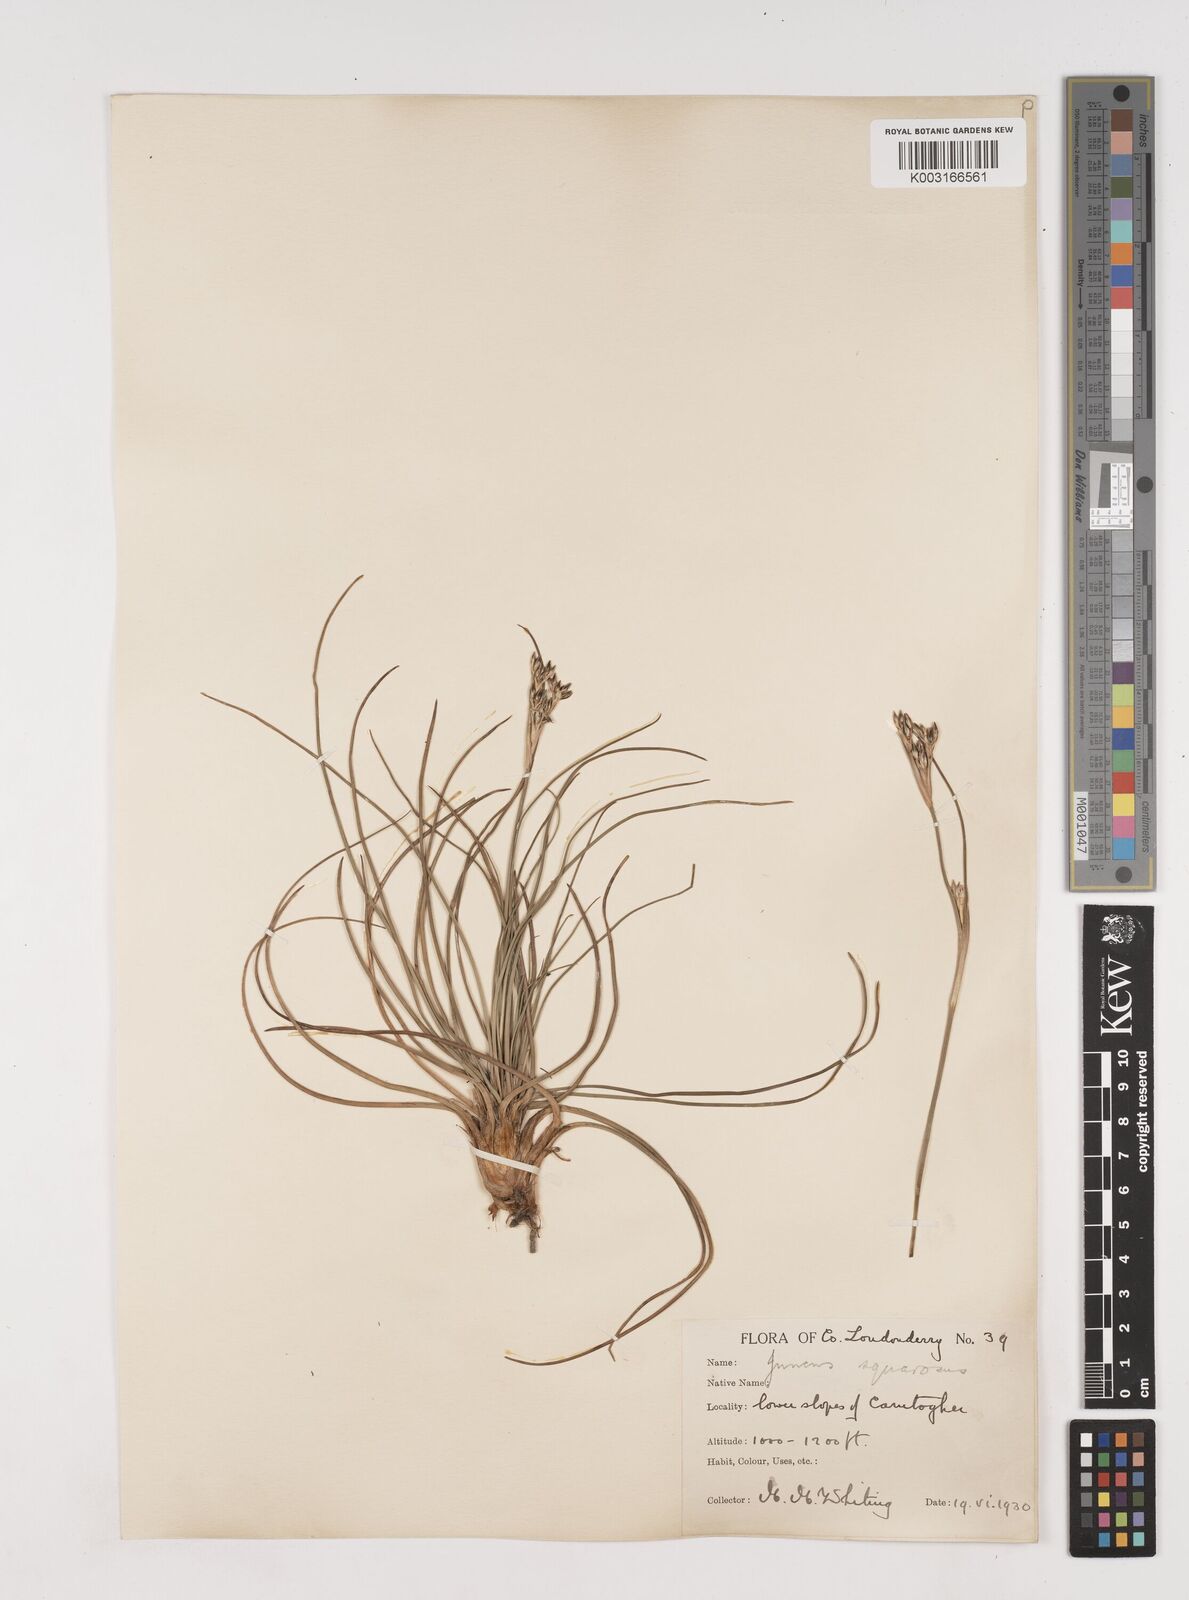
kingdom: Plantae
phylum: Tracheophyta
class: Liliopsida
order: Poales
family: Juncaceae
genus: Juncus
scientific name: Juncus squarrosus
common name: Heath rush
